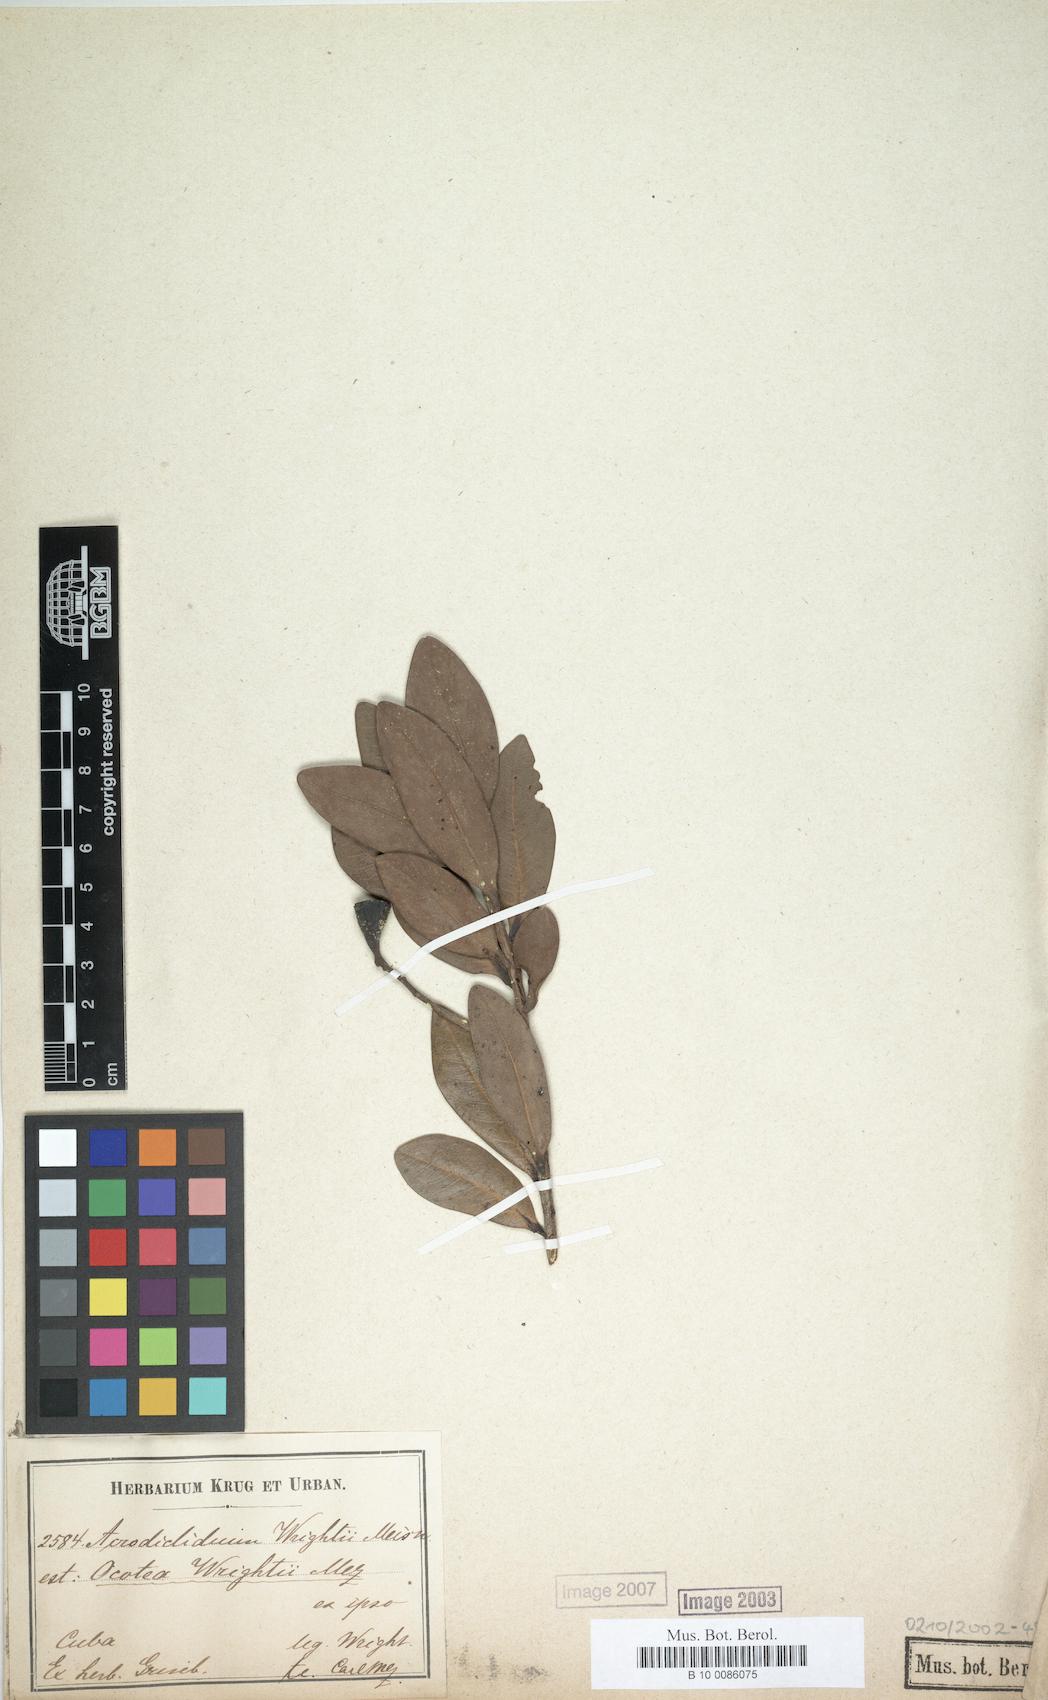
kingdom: Plantae
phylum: Tracheophyta
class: Magnoliopsida
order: Laurales
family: Lauraceae
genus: Ocotea
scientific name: Ocotea wrightii
